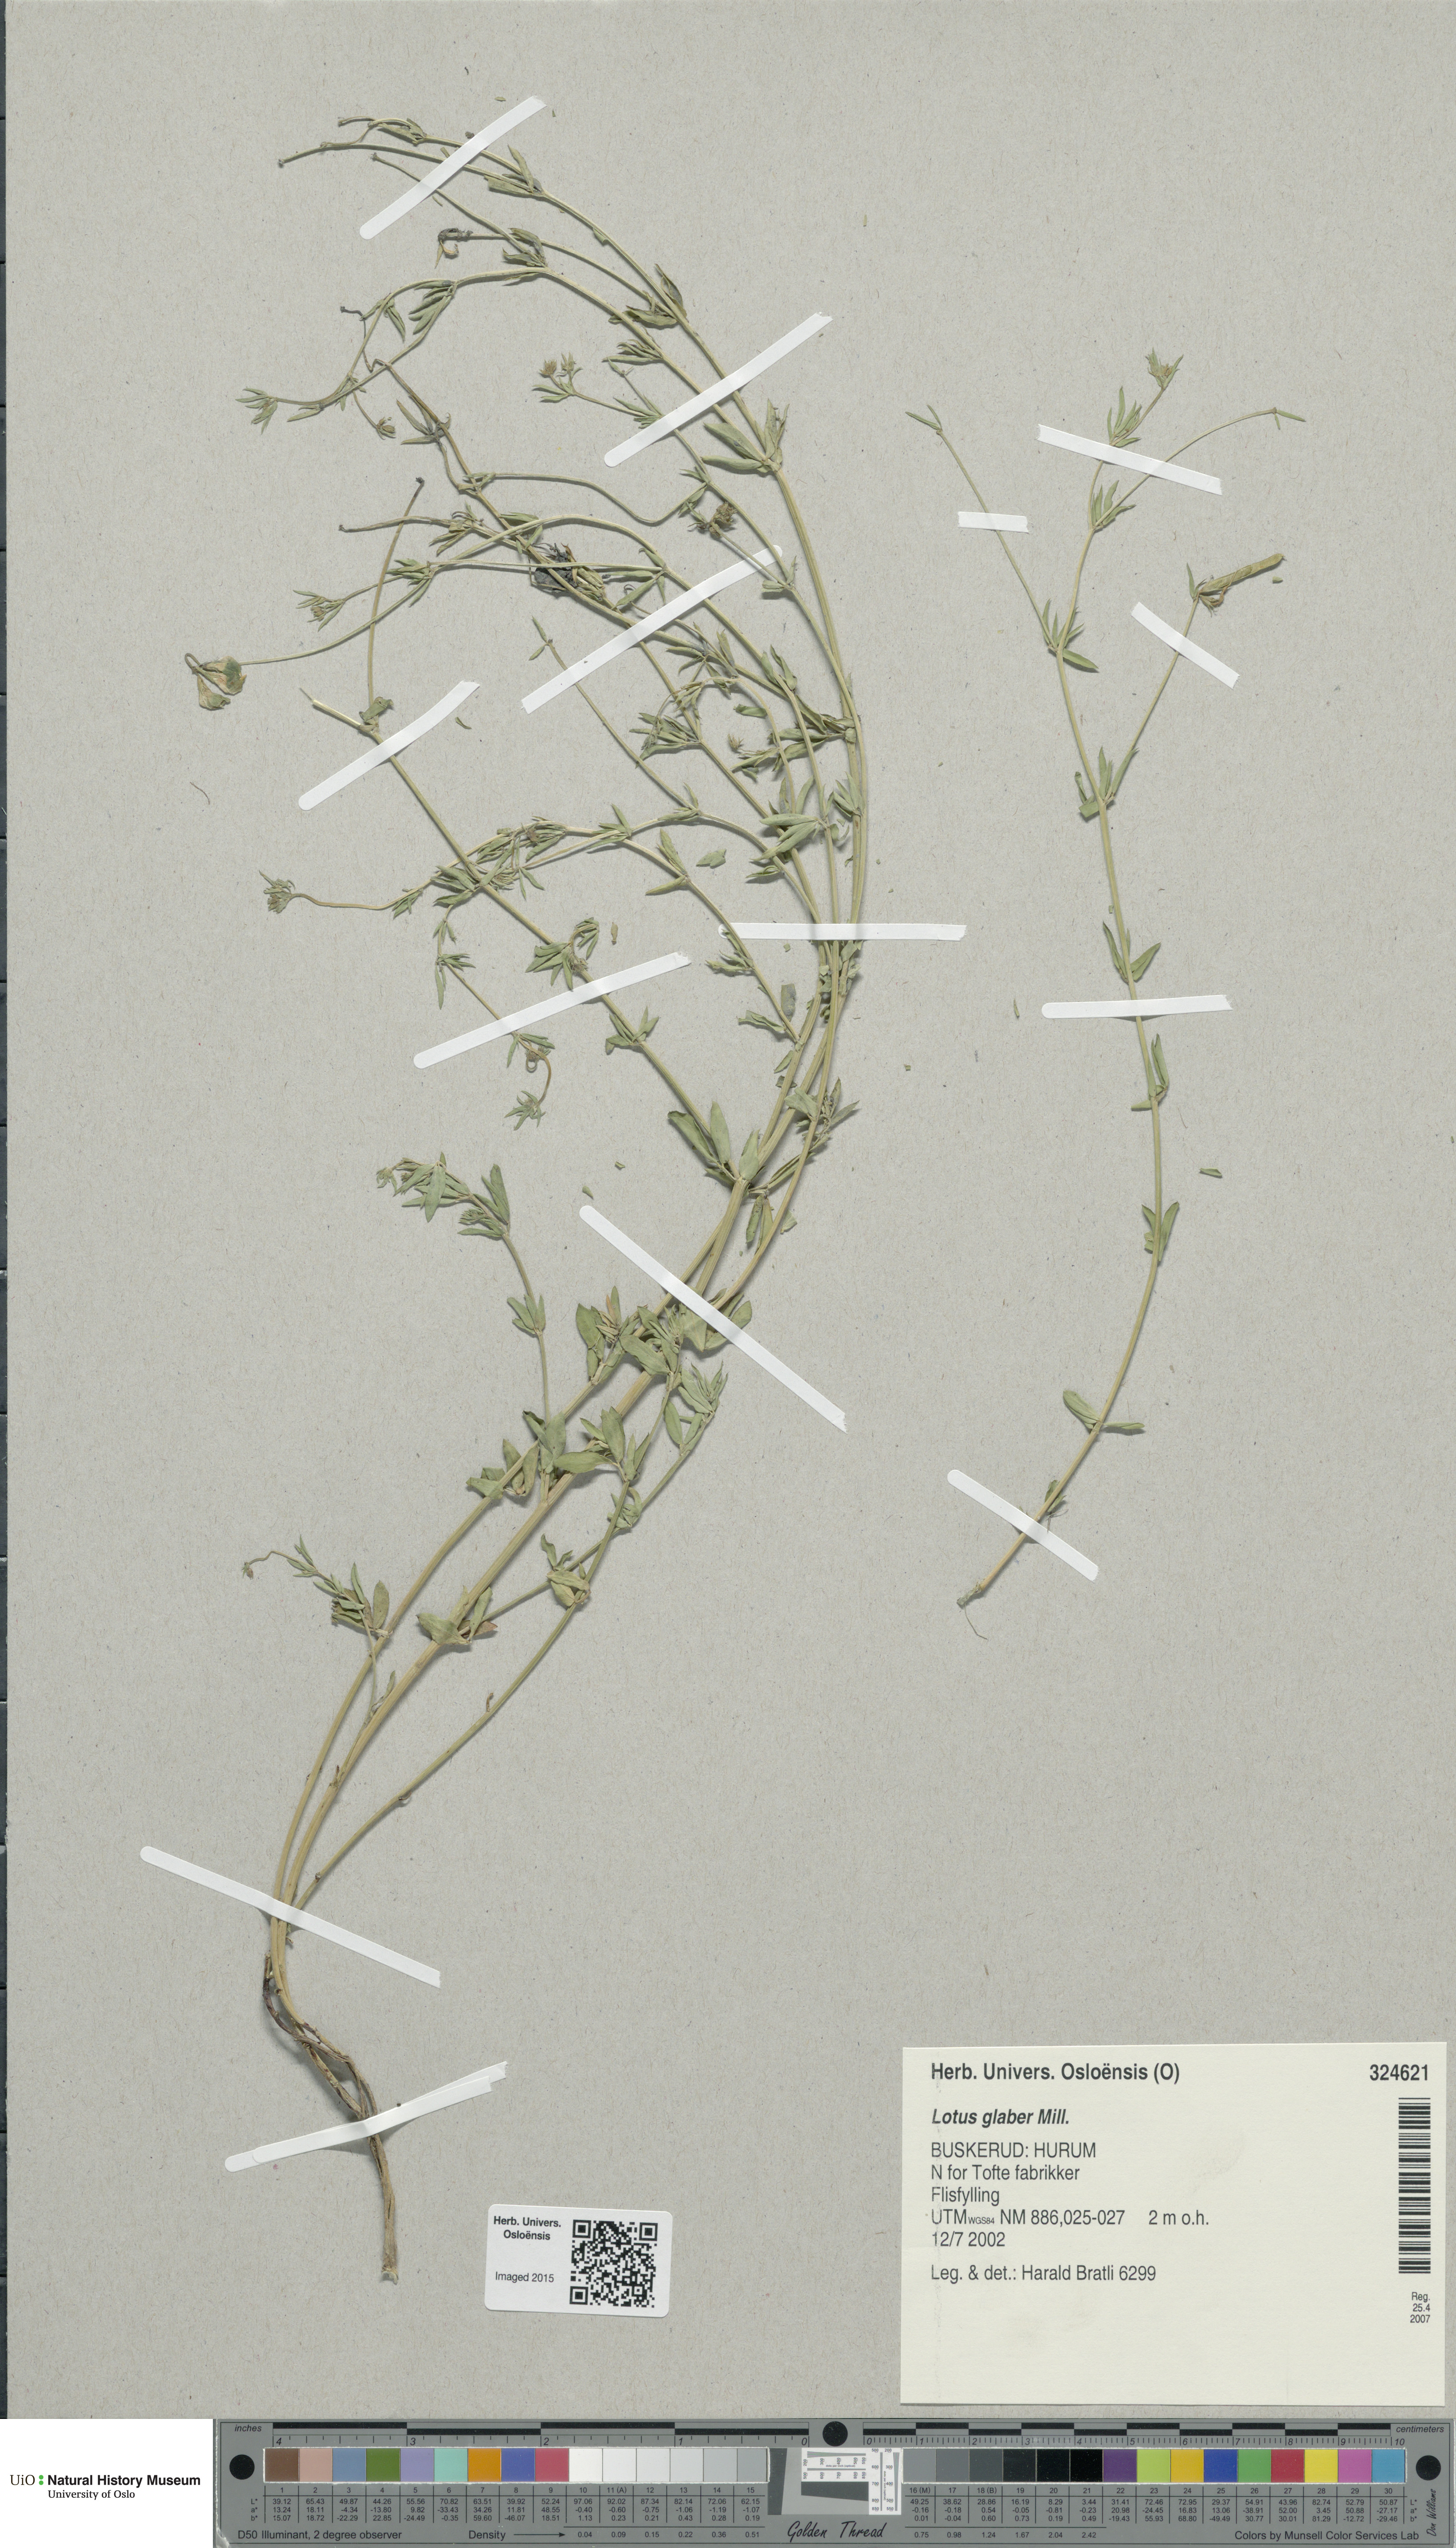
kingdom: Plantae
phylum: Tracheophyta
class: Magnoliopsida
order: Fabales
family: Fabaceae
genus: Lotus
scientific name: Lotus tenuis
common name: Narrow-leaved bird's-foot-trefoil
